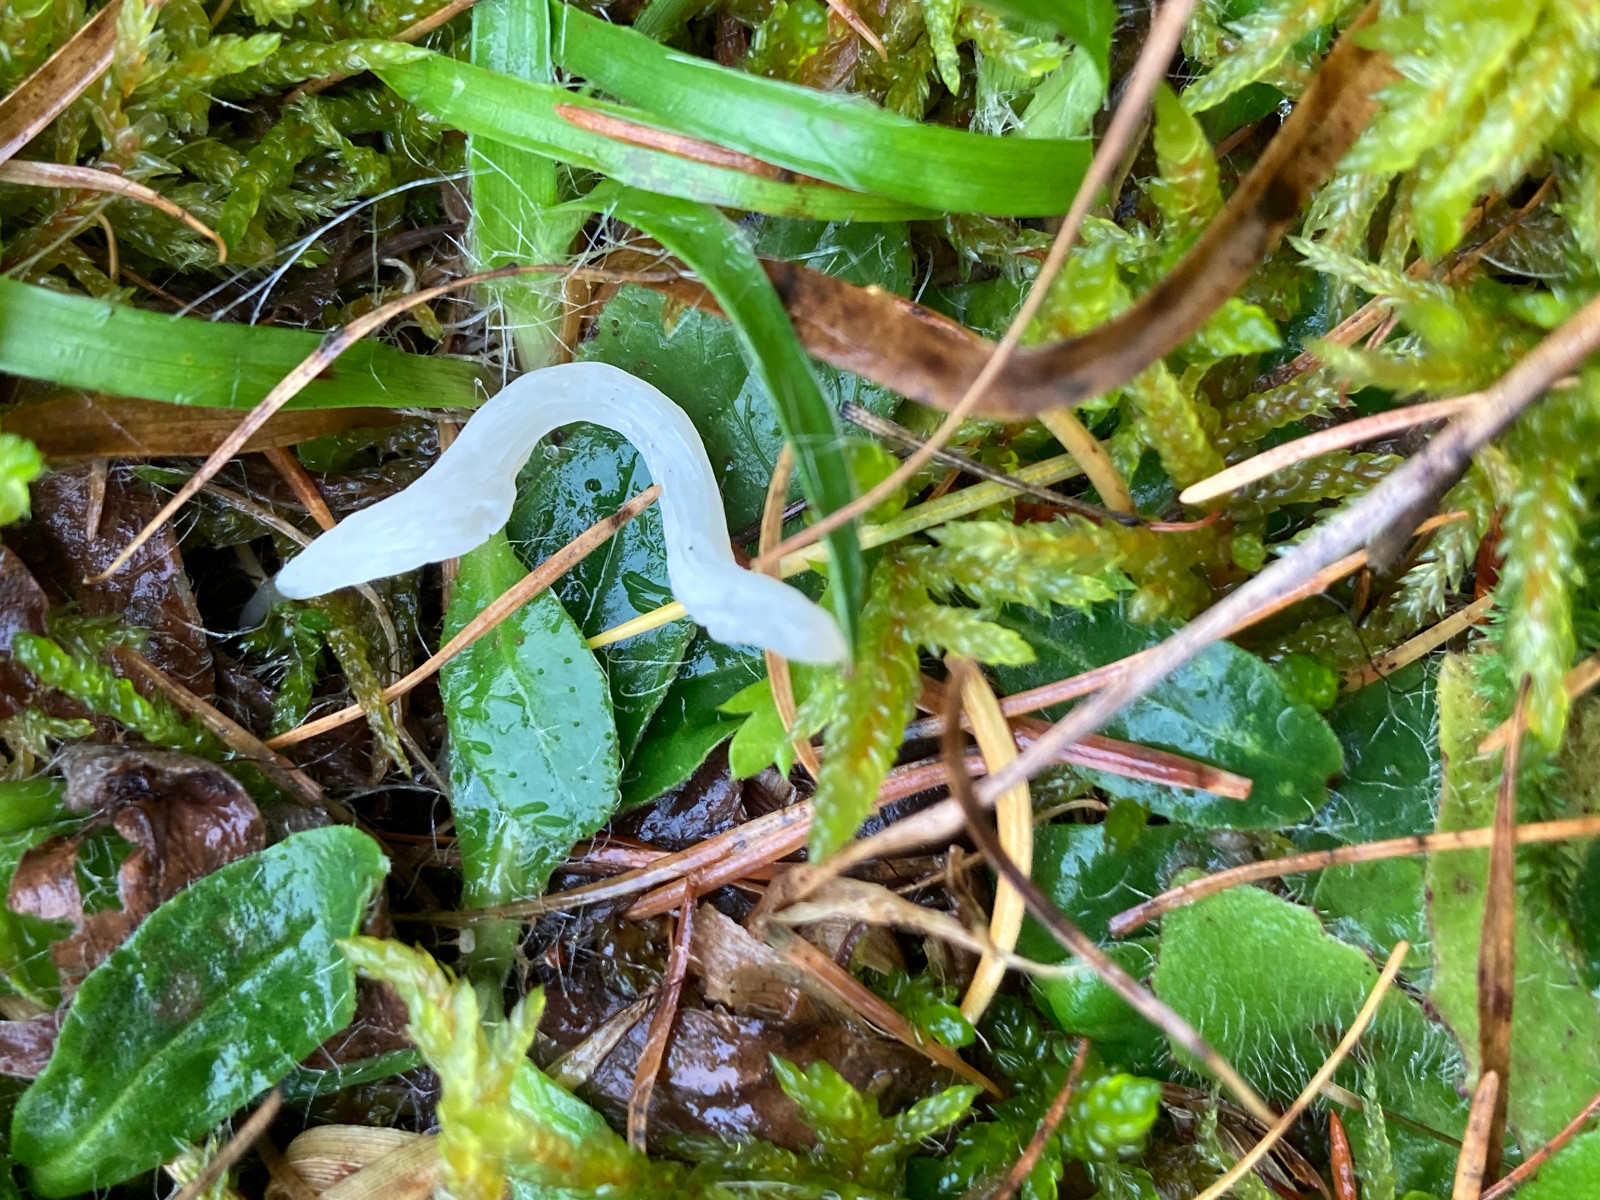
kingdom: Fungi
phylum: Basidiomycota
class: Agaricomycetes
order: Agaricales
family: Clavariaceae
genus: Clavaria
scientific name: Clavaria
